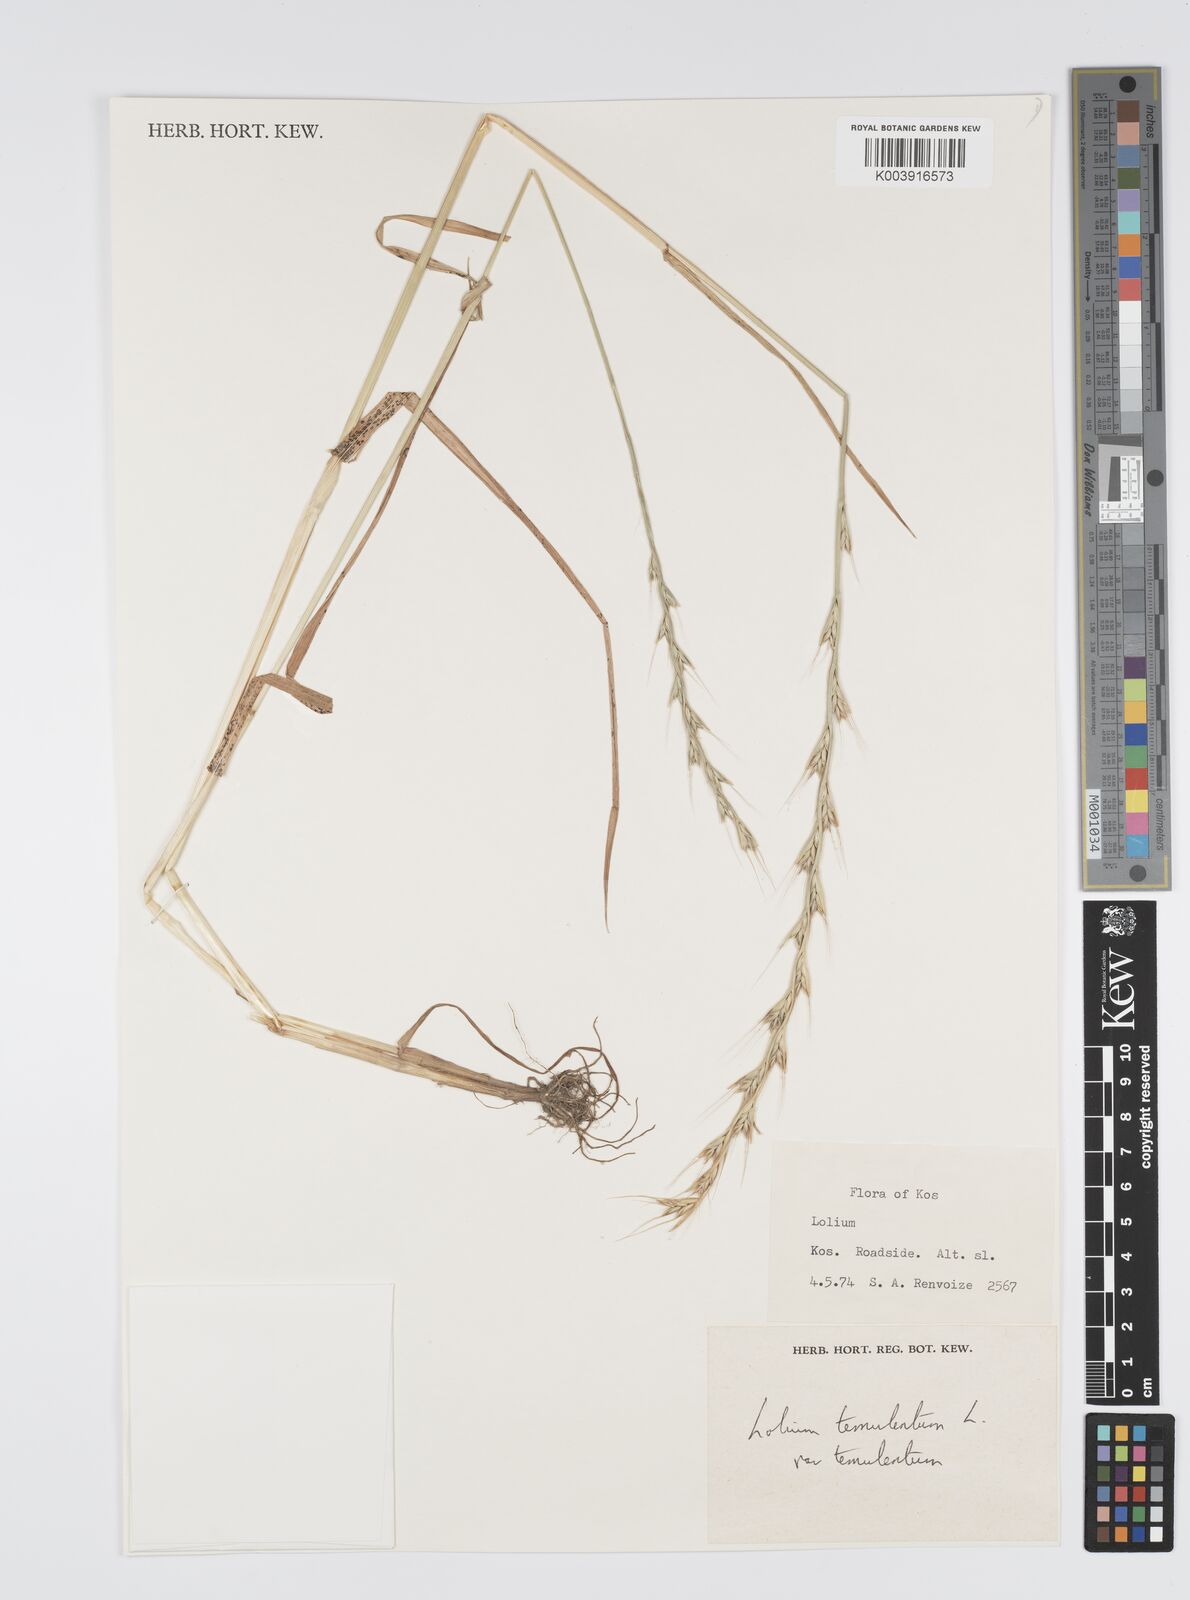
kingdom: Plantae
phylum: Tracheophyta
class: Liliopsida
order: Poales
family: Poaceae
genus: Lolium
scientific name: Lolium temulentum
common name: Darnel
